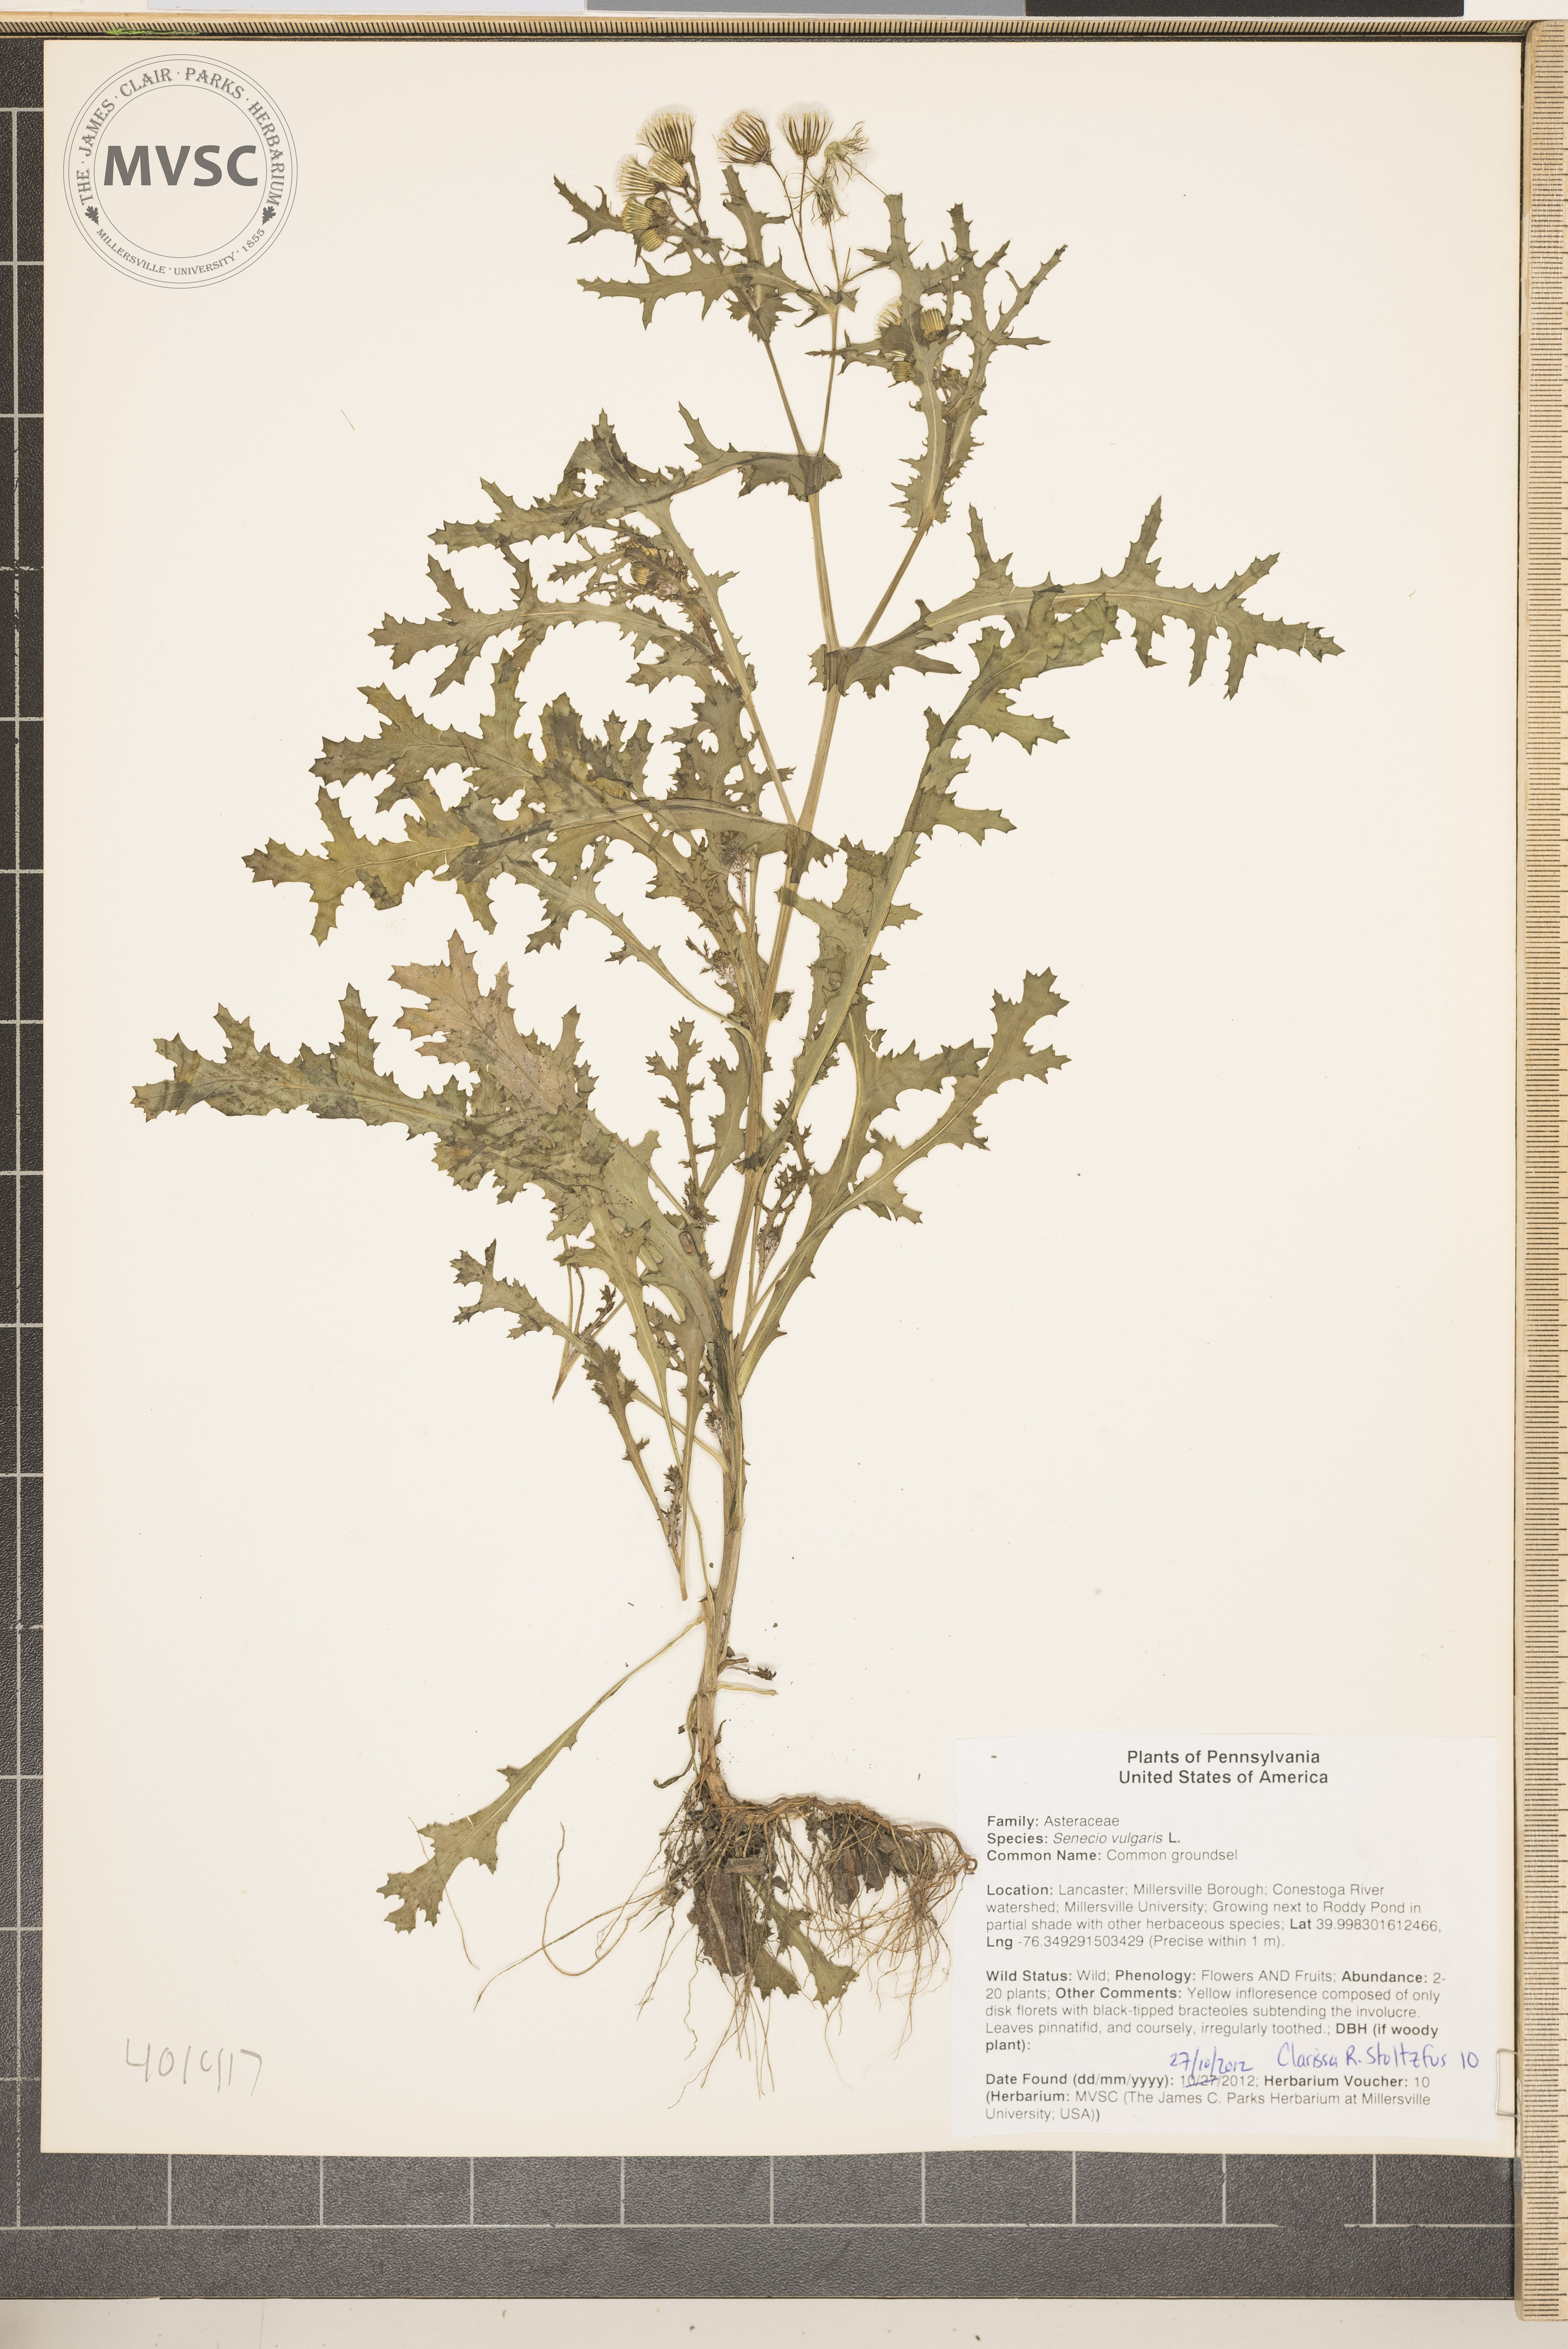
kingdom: Plantae
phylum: Tracheophyta
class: Magnoliopsida
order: Asterales
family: Asteraceae
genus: Senecio
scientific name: Senecio vulgaris
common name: Common groundsel
